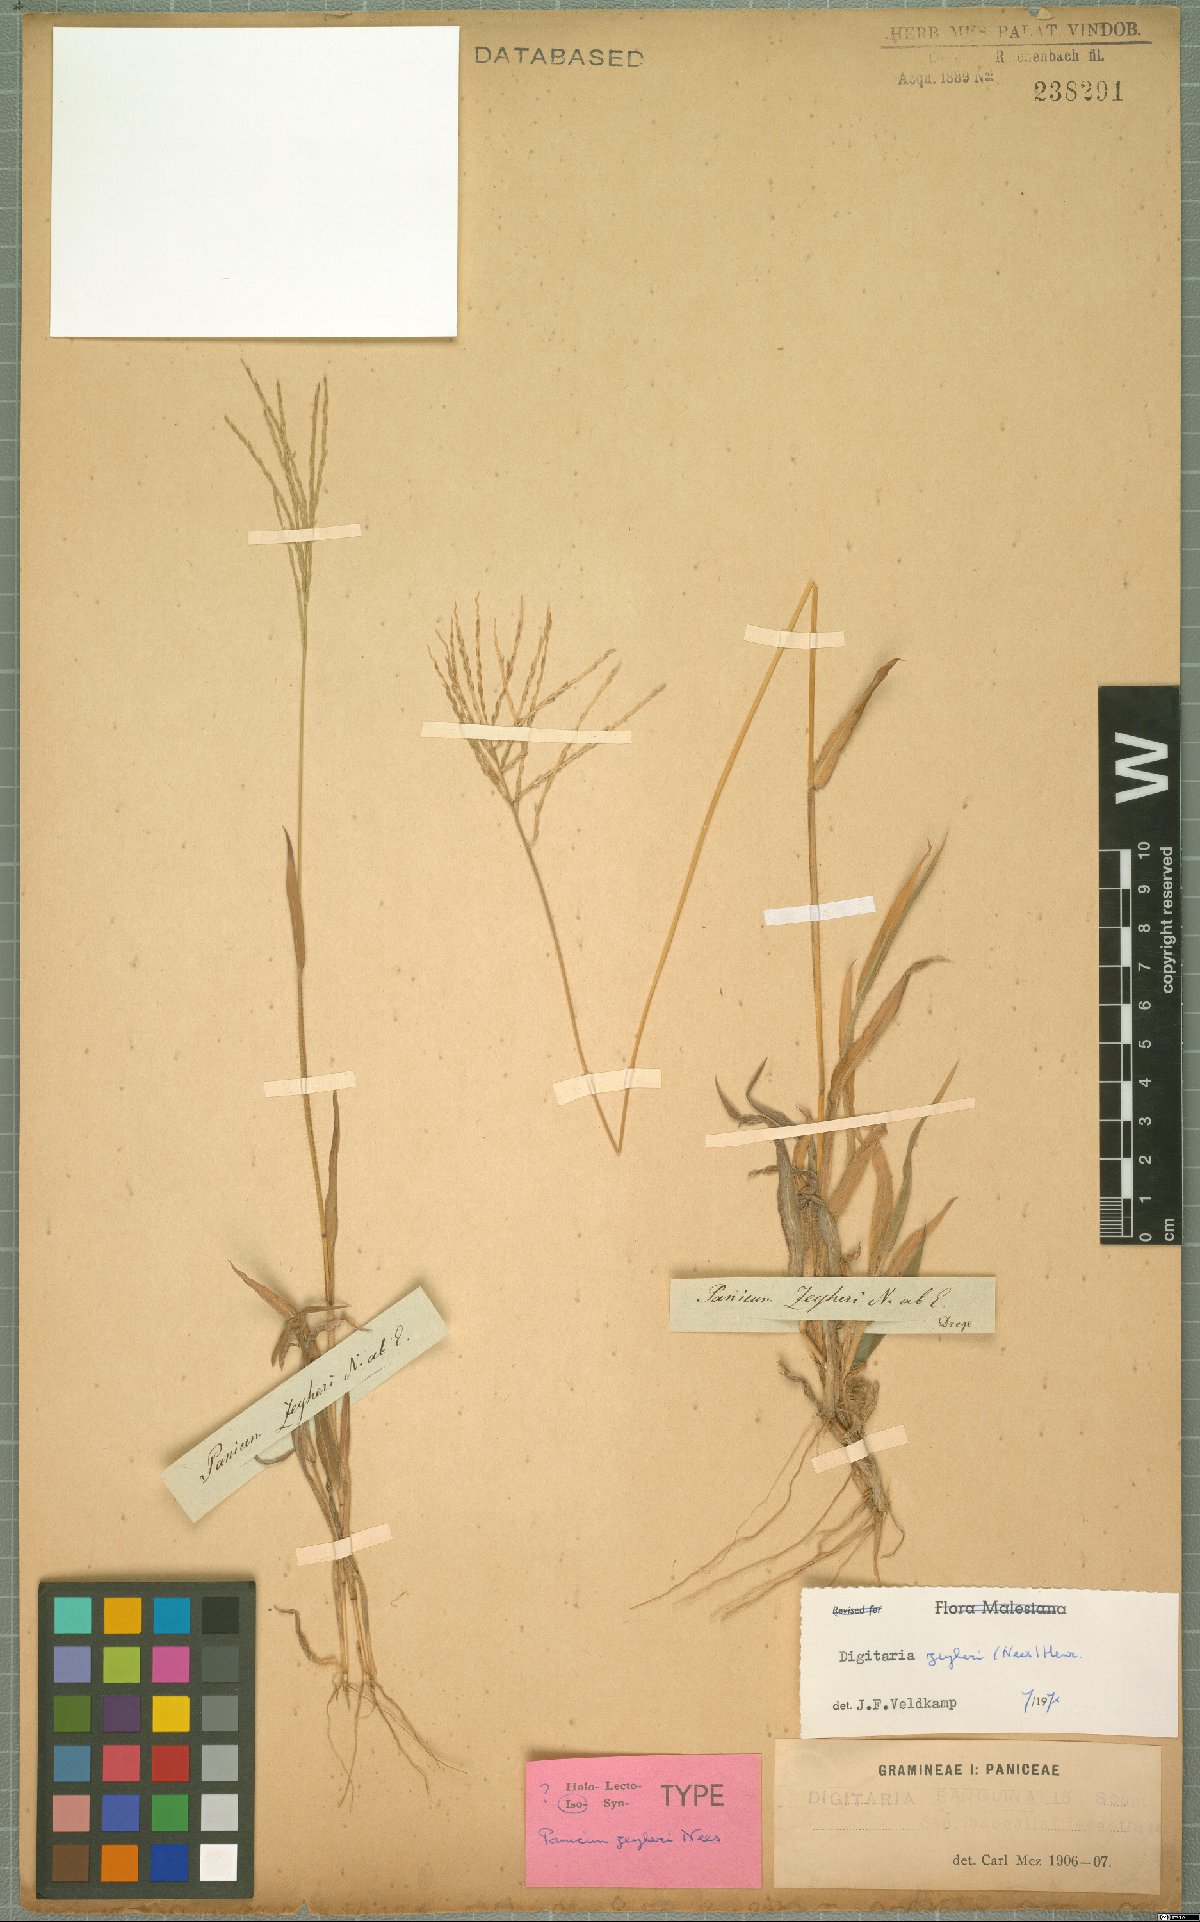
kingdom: Plantae
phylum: Tracheophyta
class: Liliopsida
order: Poales
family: Poaceae
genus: Digitaria
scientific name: Digitaria velutina
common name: Long-plume finger grass
